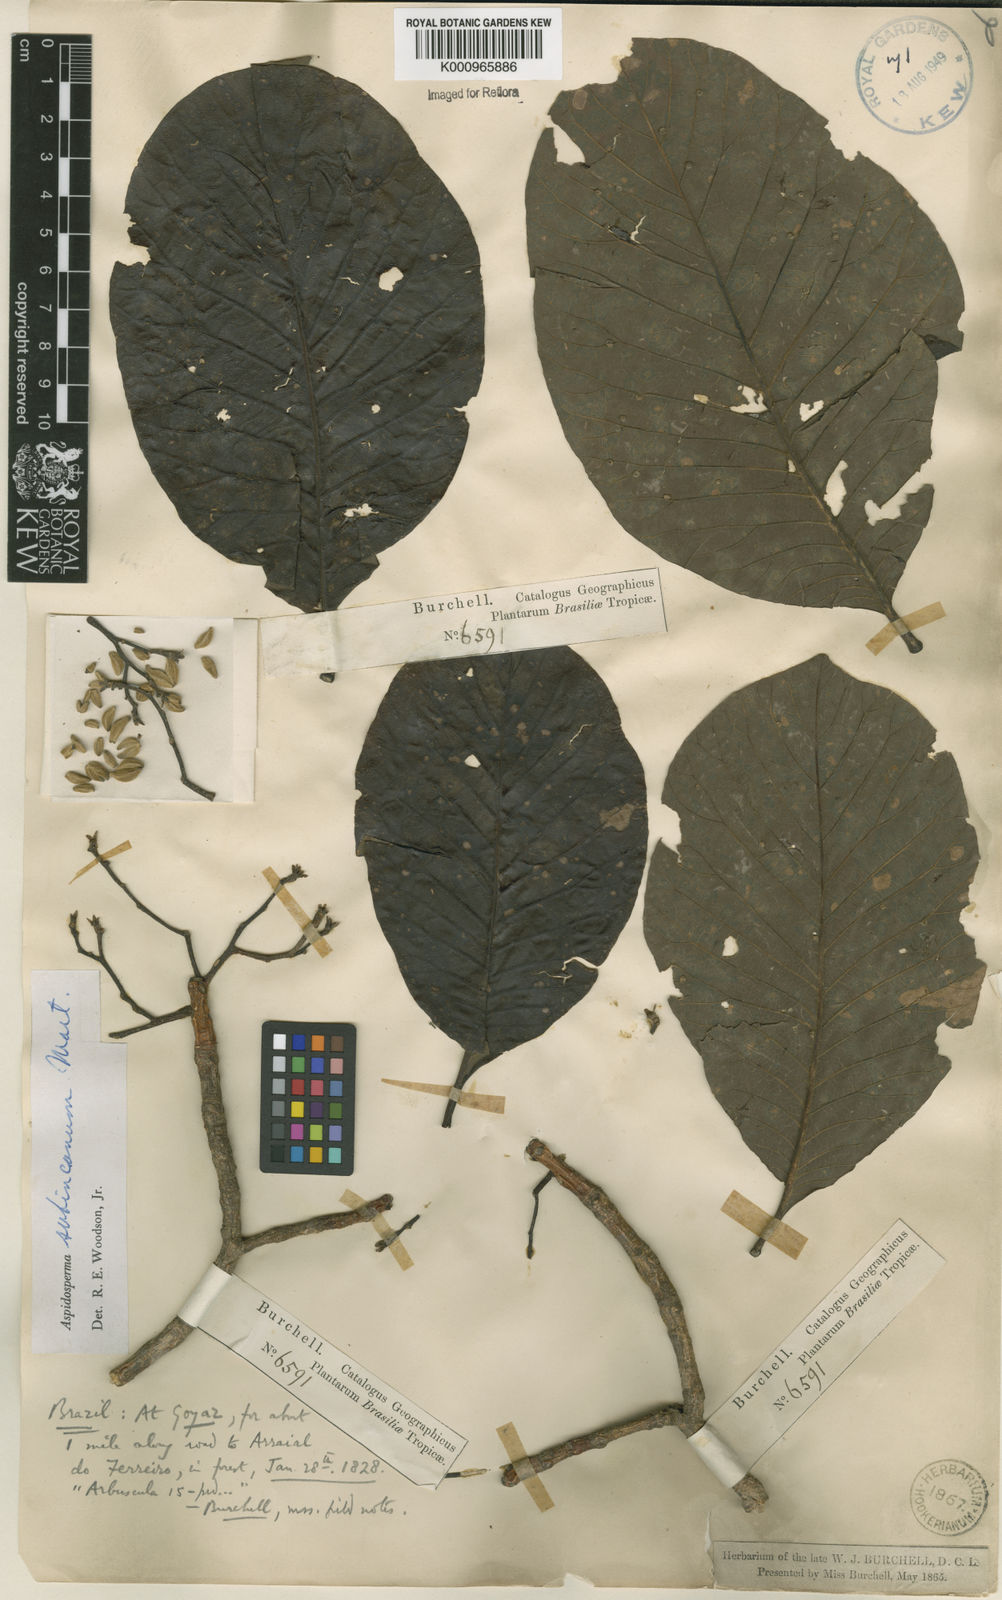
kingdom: Plantae
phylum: Tracheophyta
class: Magnoliopsida
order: Gentianales
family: Apocynaceae
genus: Aspidosperma
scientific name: Aspidosperma subincanum
